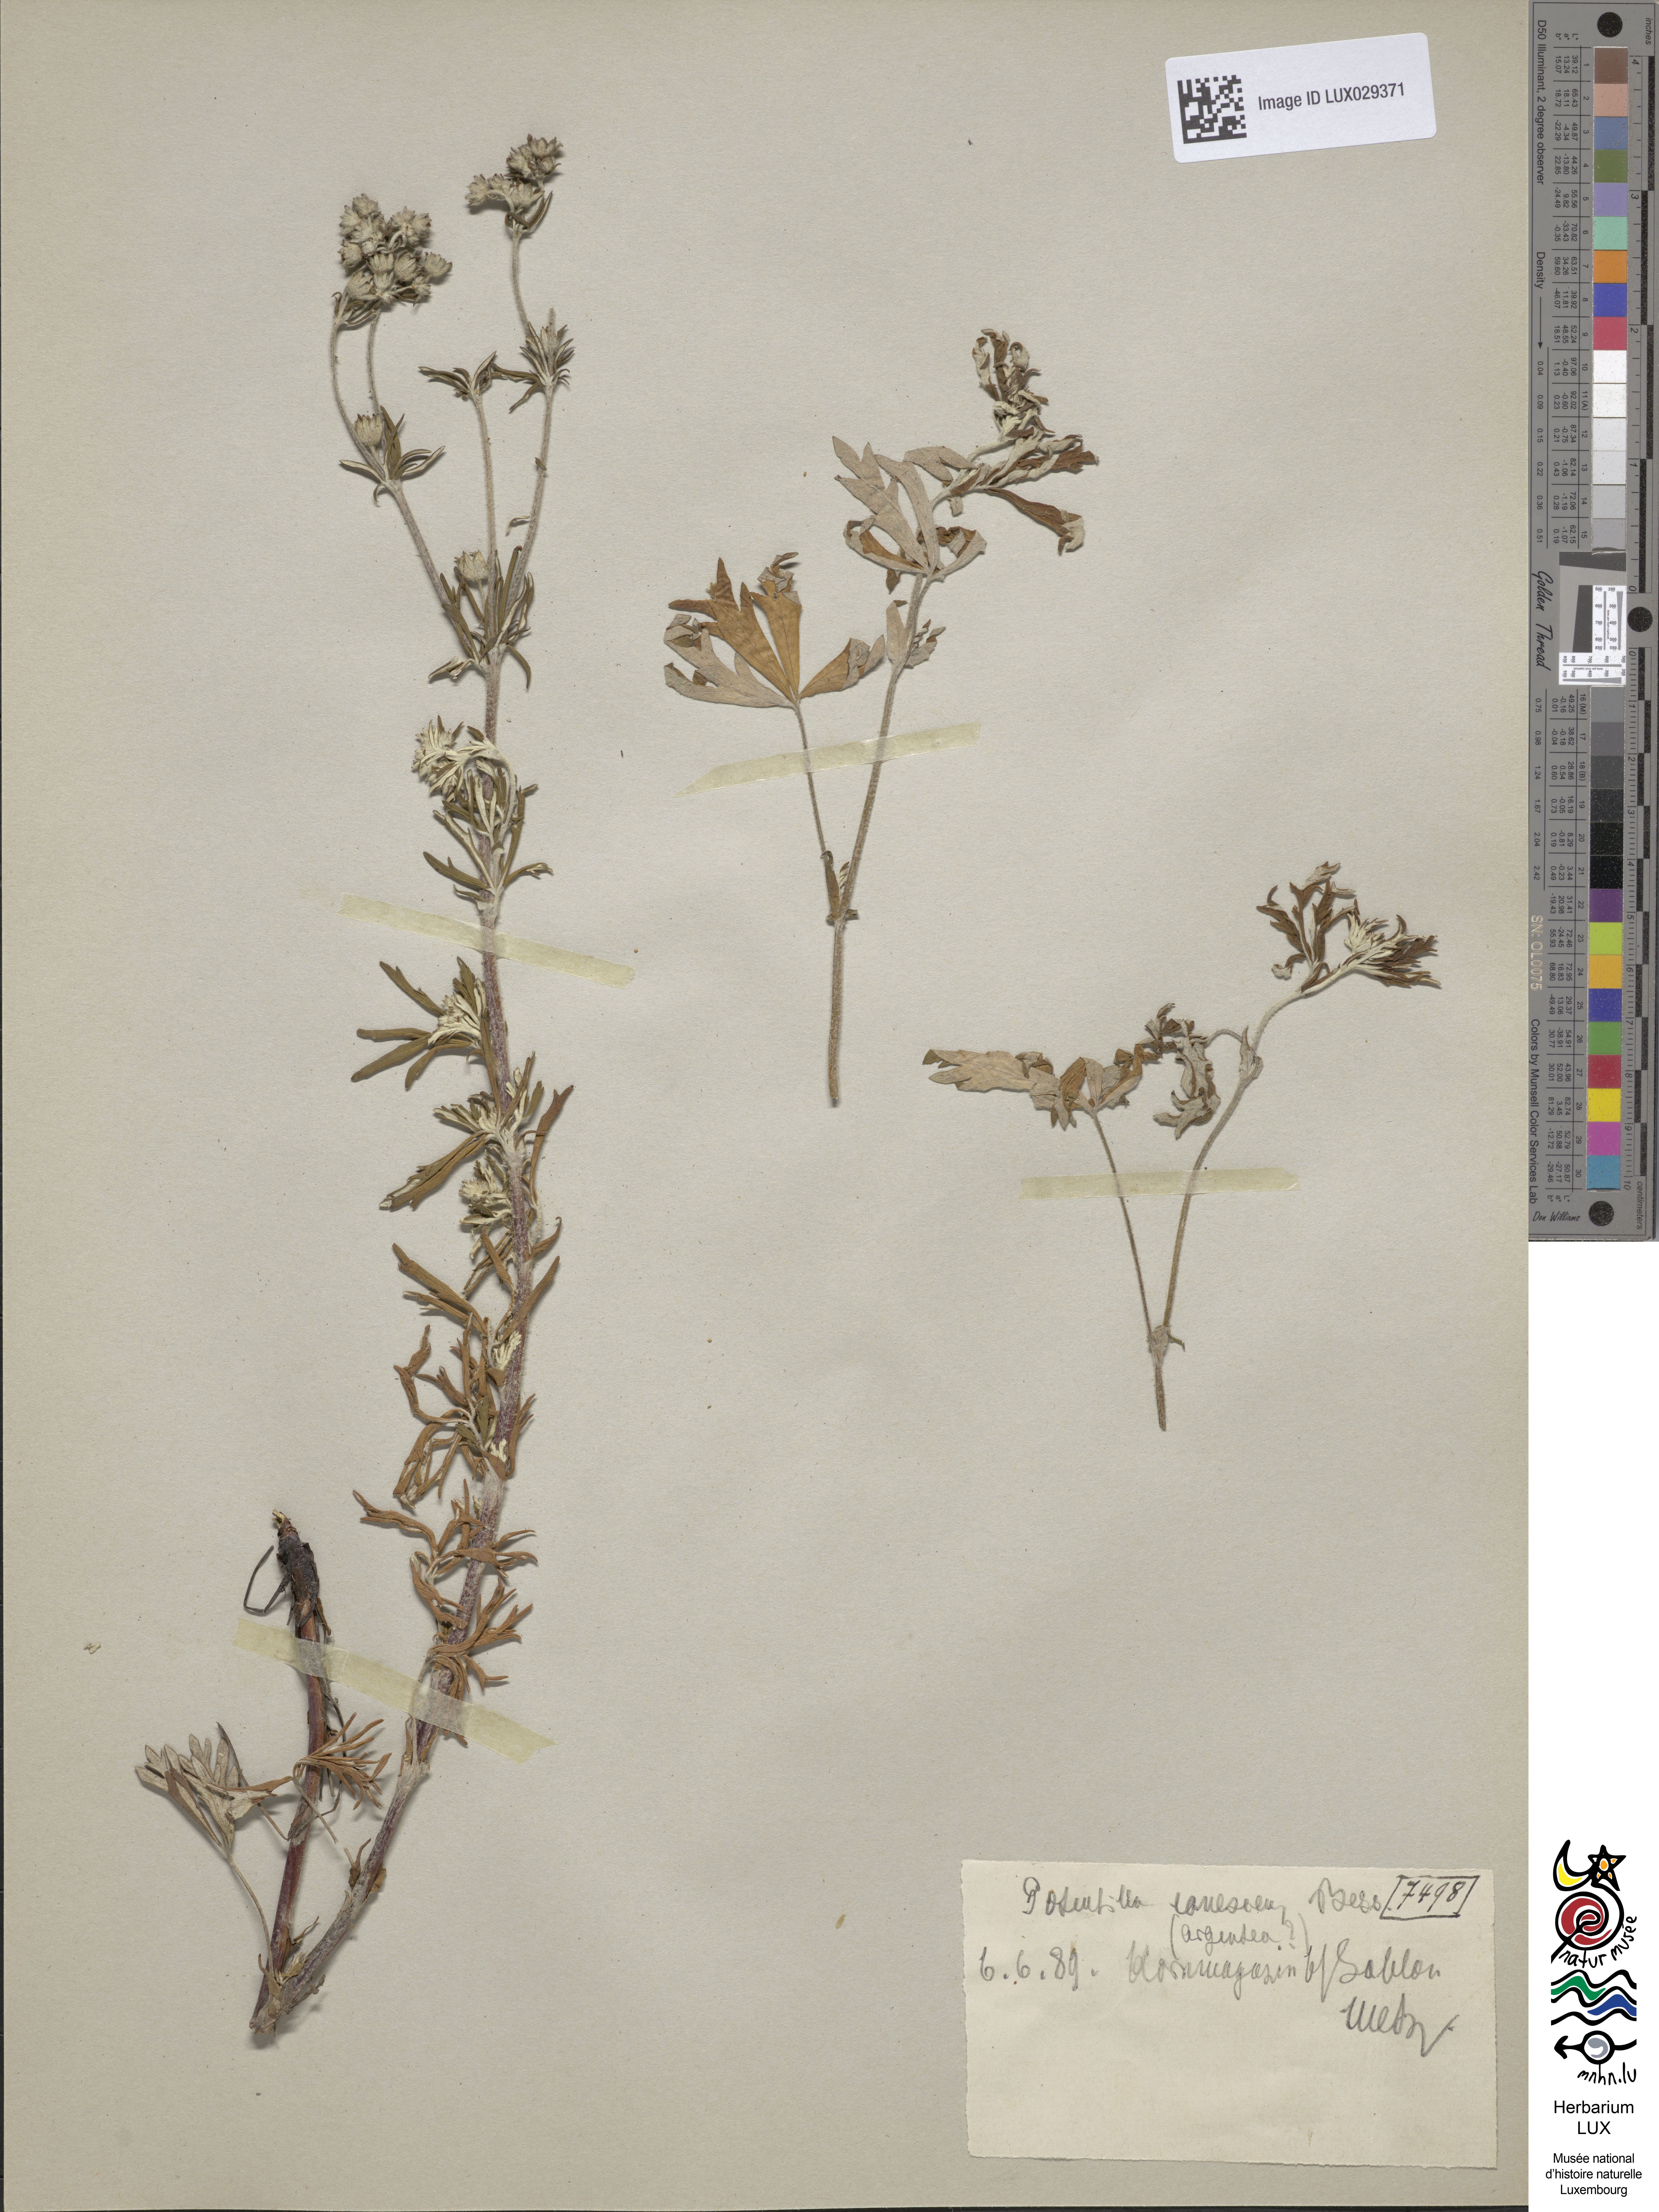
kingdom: Plantae
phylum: Tracheophyta
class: Magnoliopsida
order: Rosales
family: Rosaceae
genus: Potentilla
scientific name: Potentilla inclinata
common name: Grey cinquefoil
